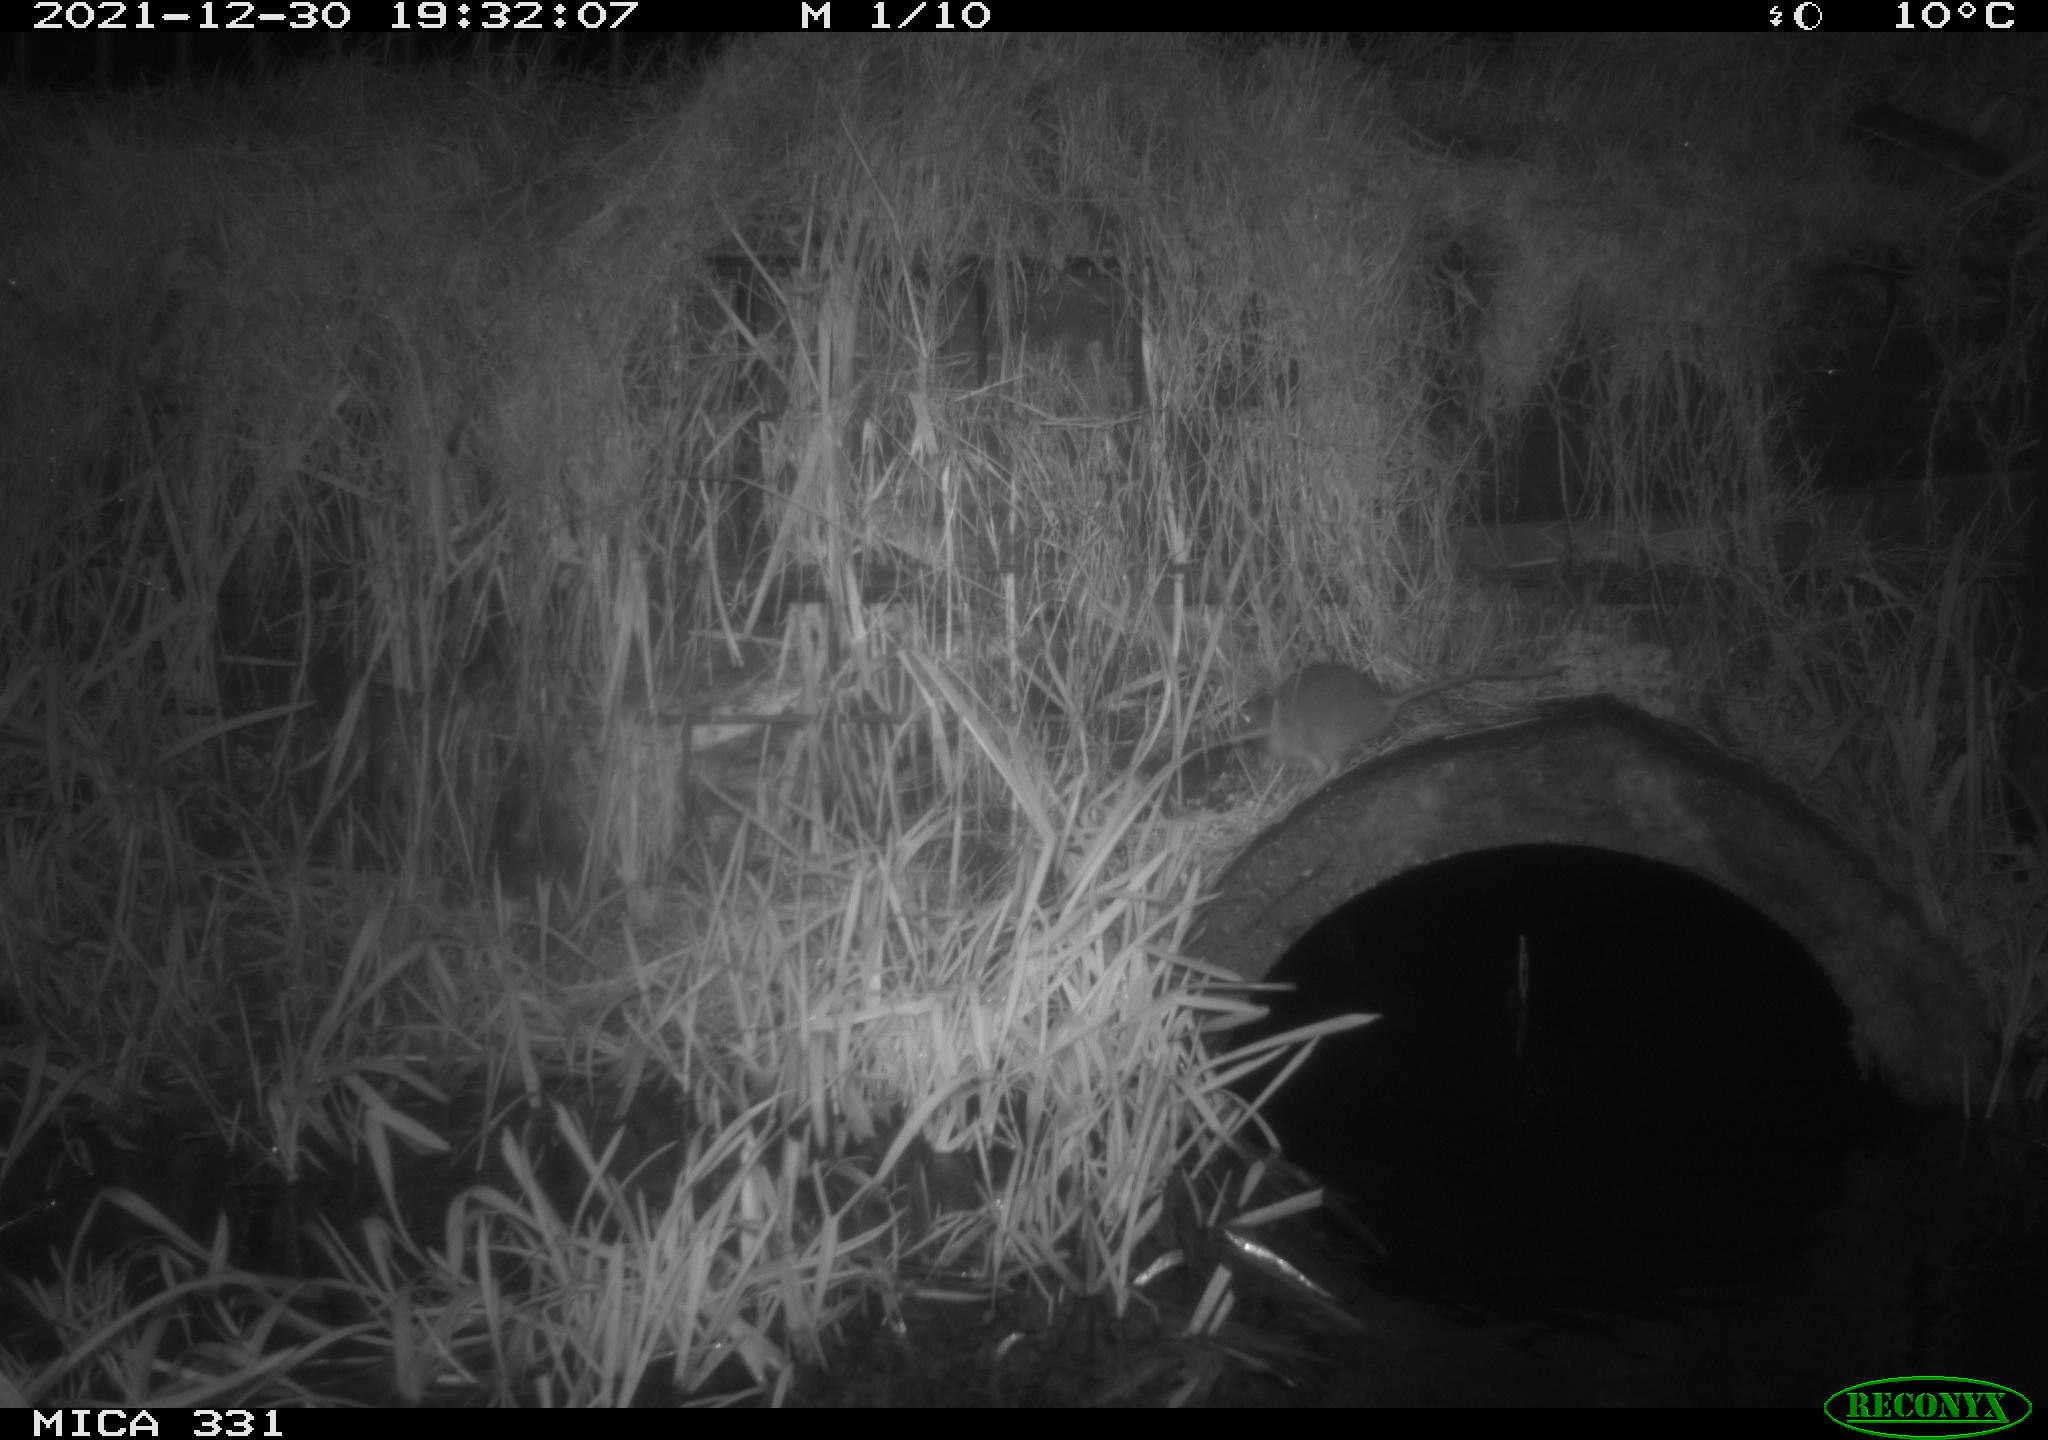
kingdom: Animalia
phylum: Chordata
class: Mammalia
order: Rodentia
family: Muridae
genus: Rattus
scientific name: Rattus norvegicus
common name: Brown rat
